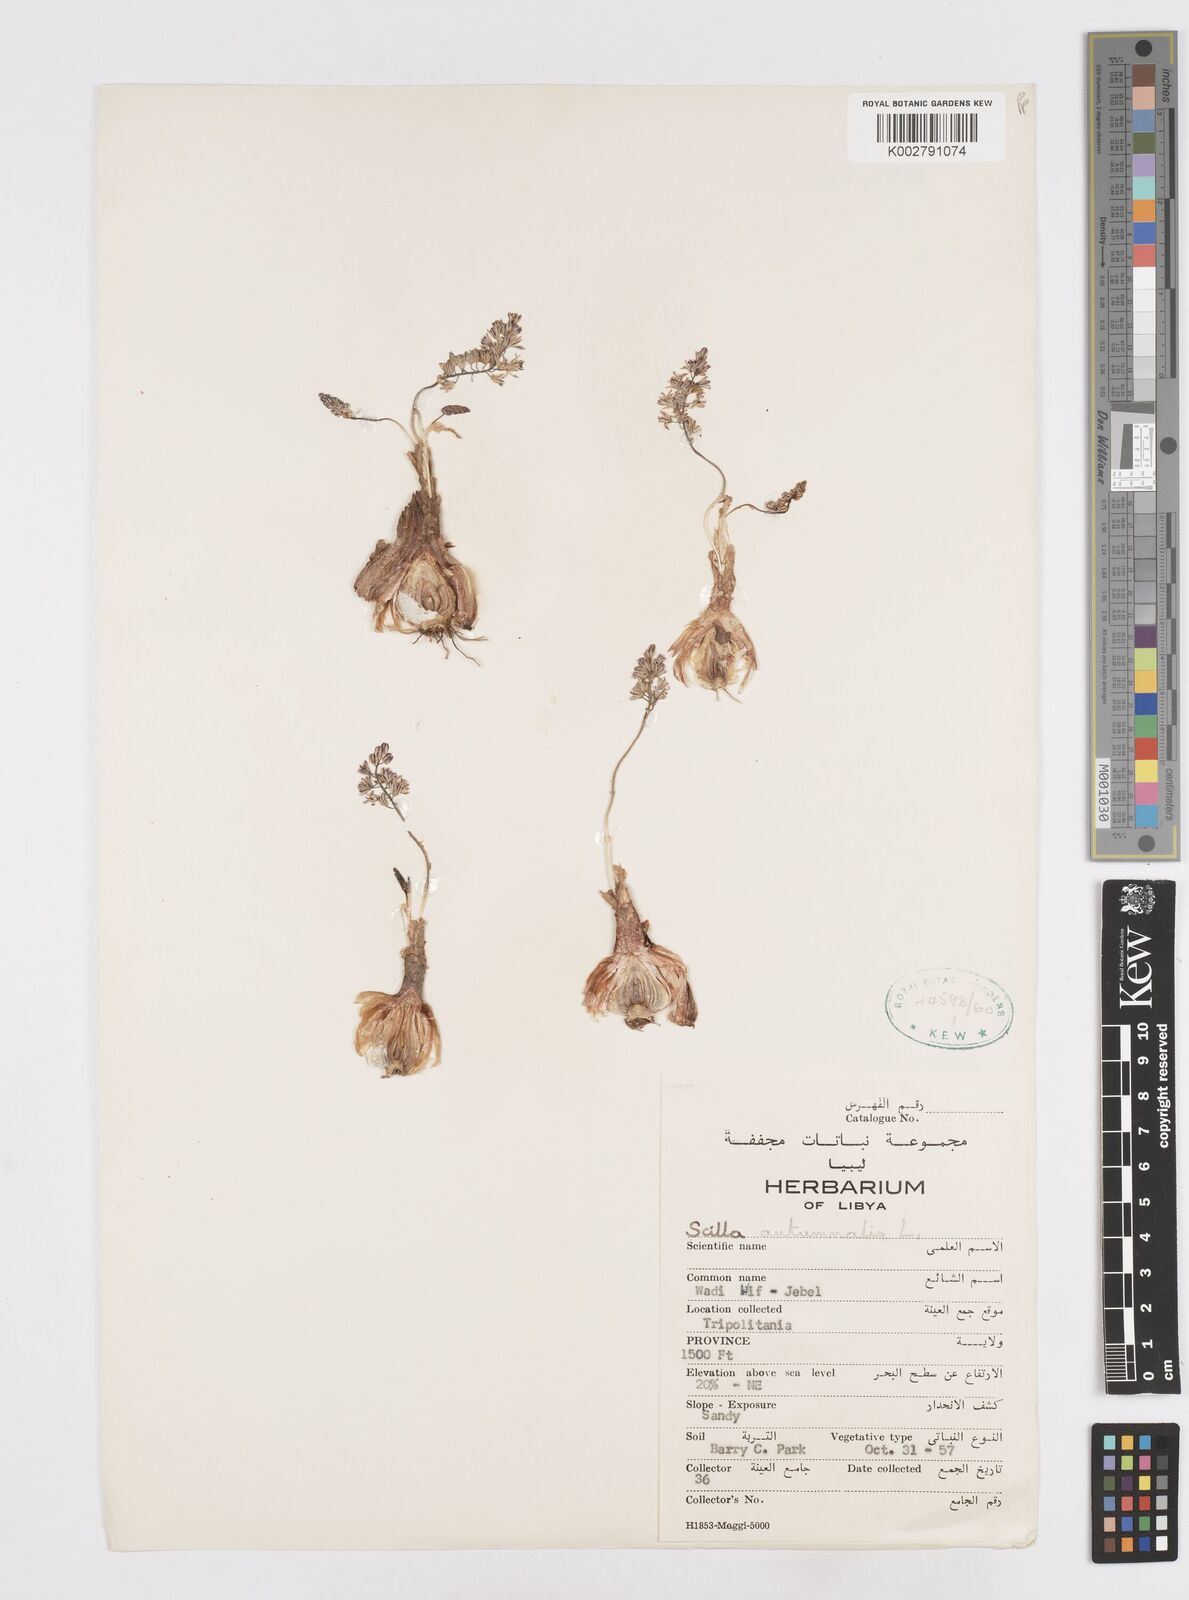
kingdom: Plantae
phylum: Tracheophyta
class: Liliopsida
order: Asparagales
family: Asparagaceae
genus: Prospero
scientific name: Prospero autumnale
